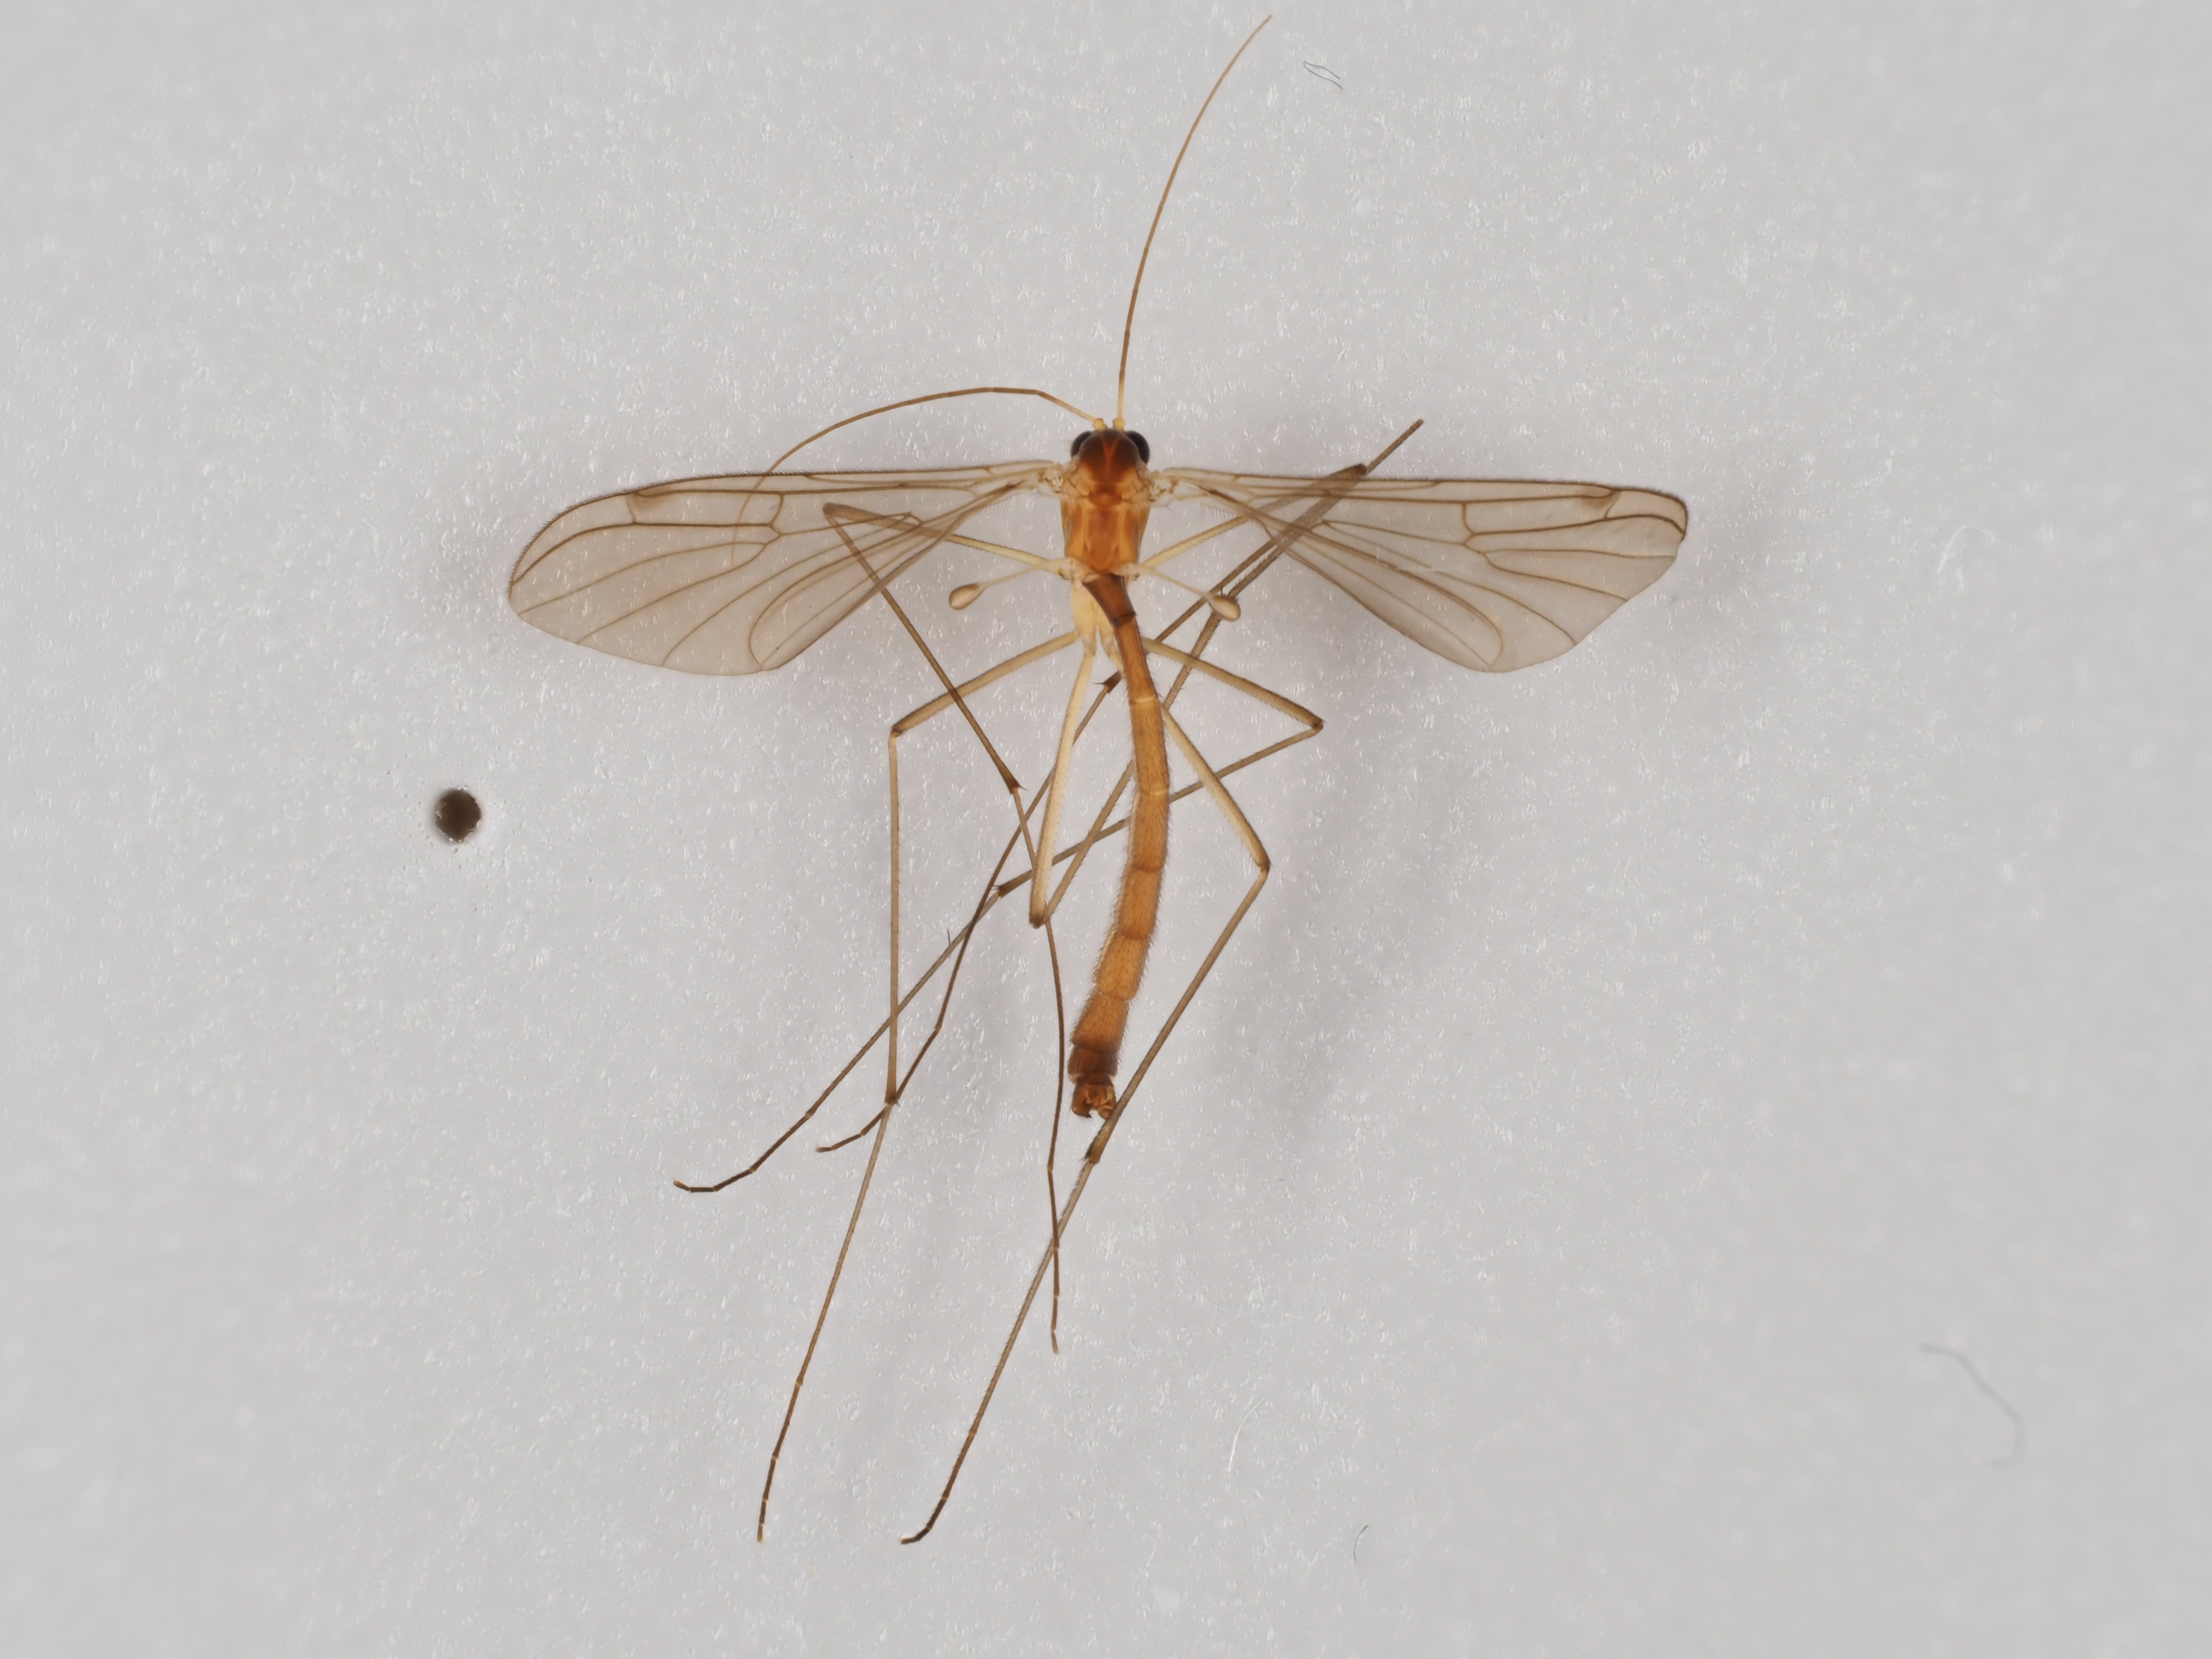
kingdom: Animalia
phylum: Arthropoda
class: Insecta
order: Diptera
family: Bolitophilidae
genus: Bolitophila
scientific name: Bolitophila occlusa
